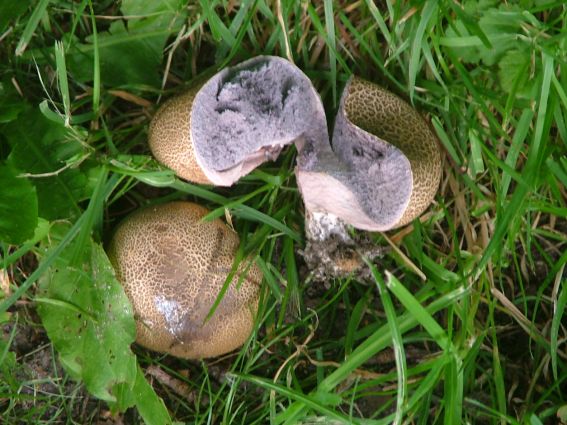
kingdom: Fungi
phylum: Basidiomycota
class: Agaricomycetes
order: Boletales
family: Sclerodermataceae
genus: Scleroderma
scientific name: Scleroderma verrucosum
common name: stilket bruskbold
